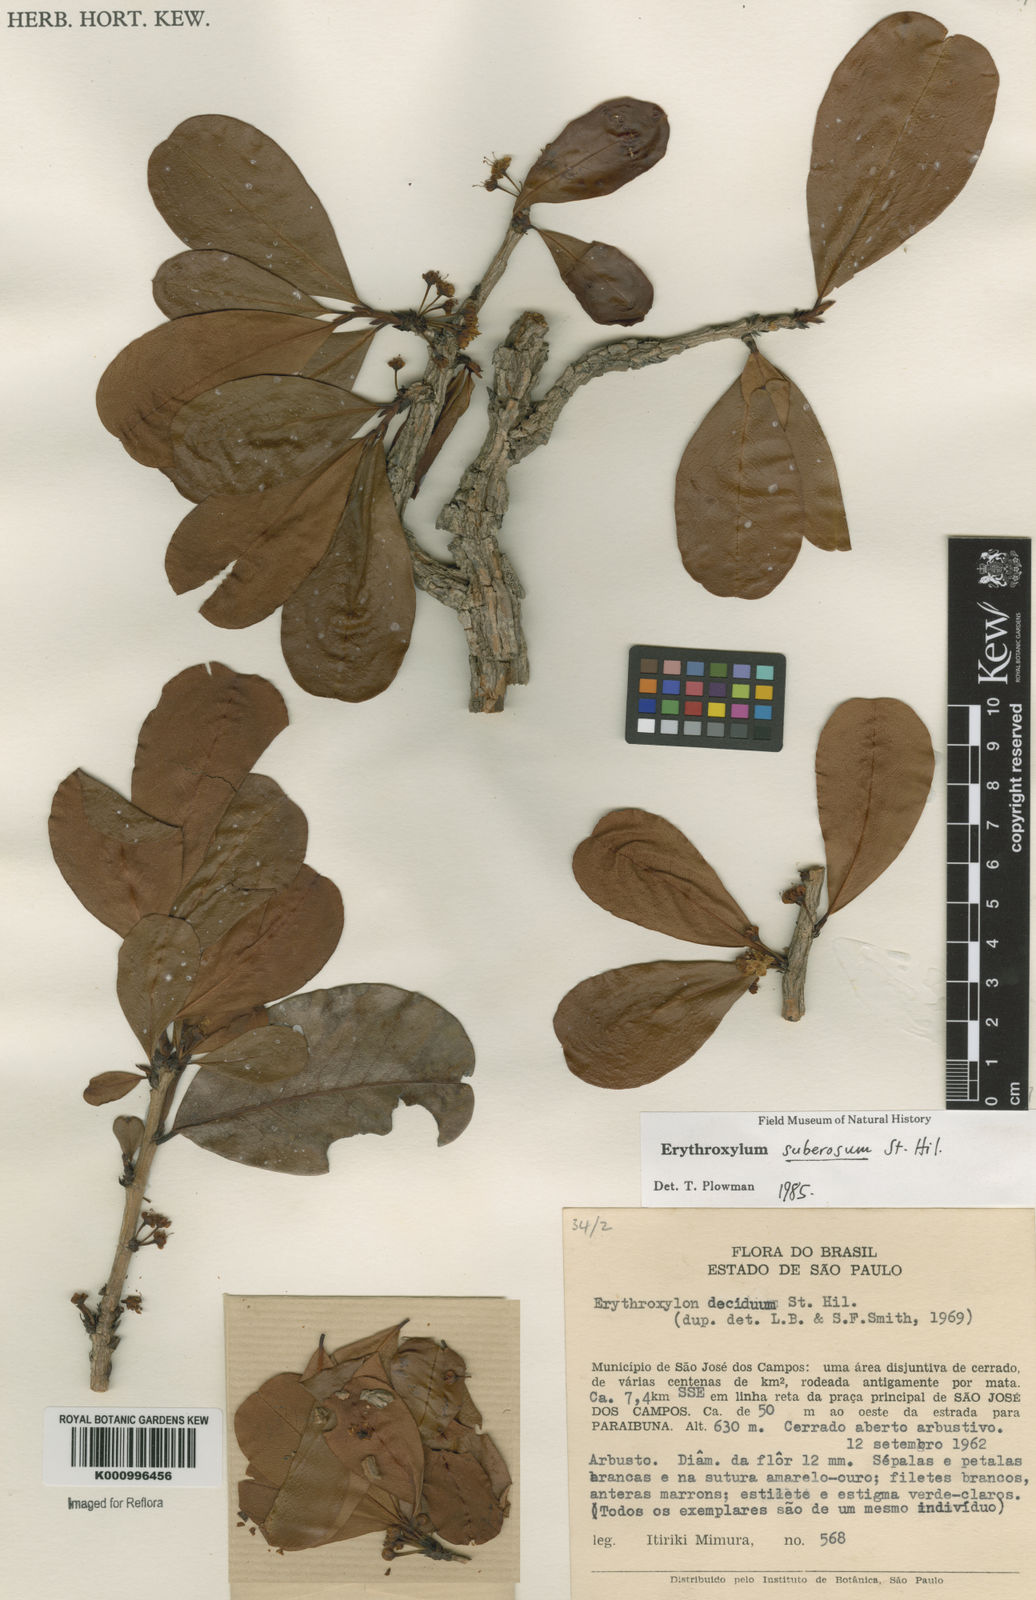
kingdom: Plantae
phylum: Tracheophyta
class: Magnoliopsida
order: Malpighiales
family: Erythroxylaceae
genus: Erythroxylum
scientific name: Erythroxylum suberosum
